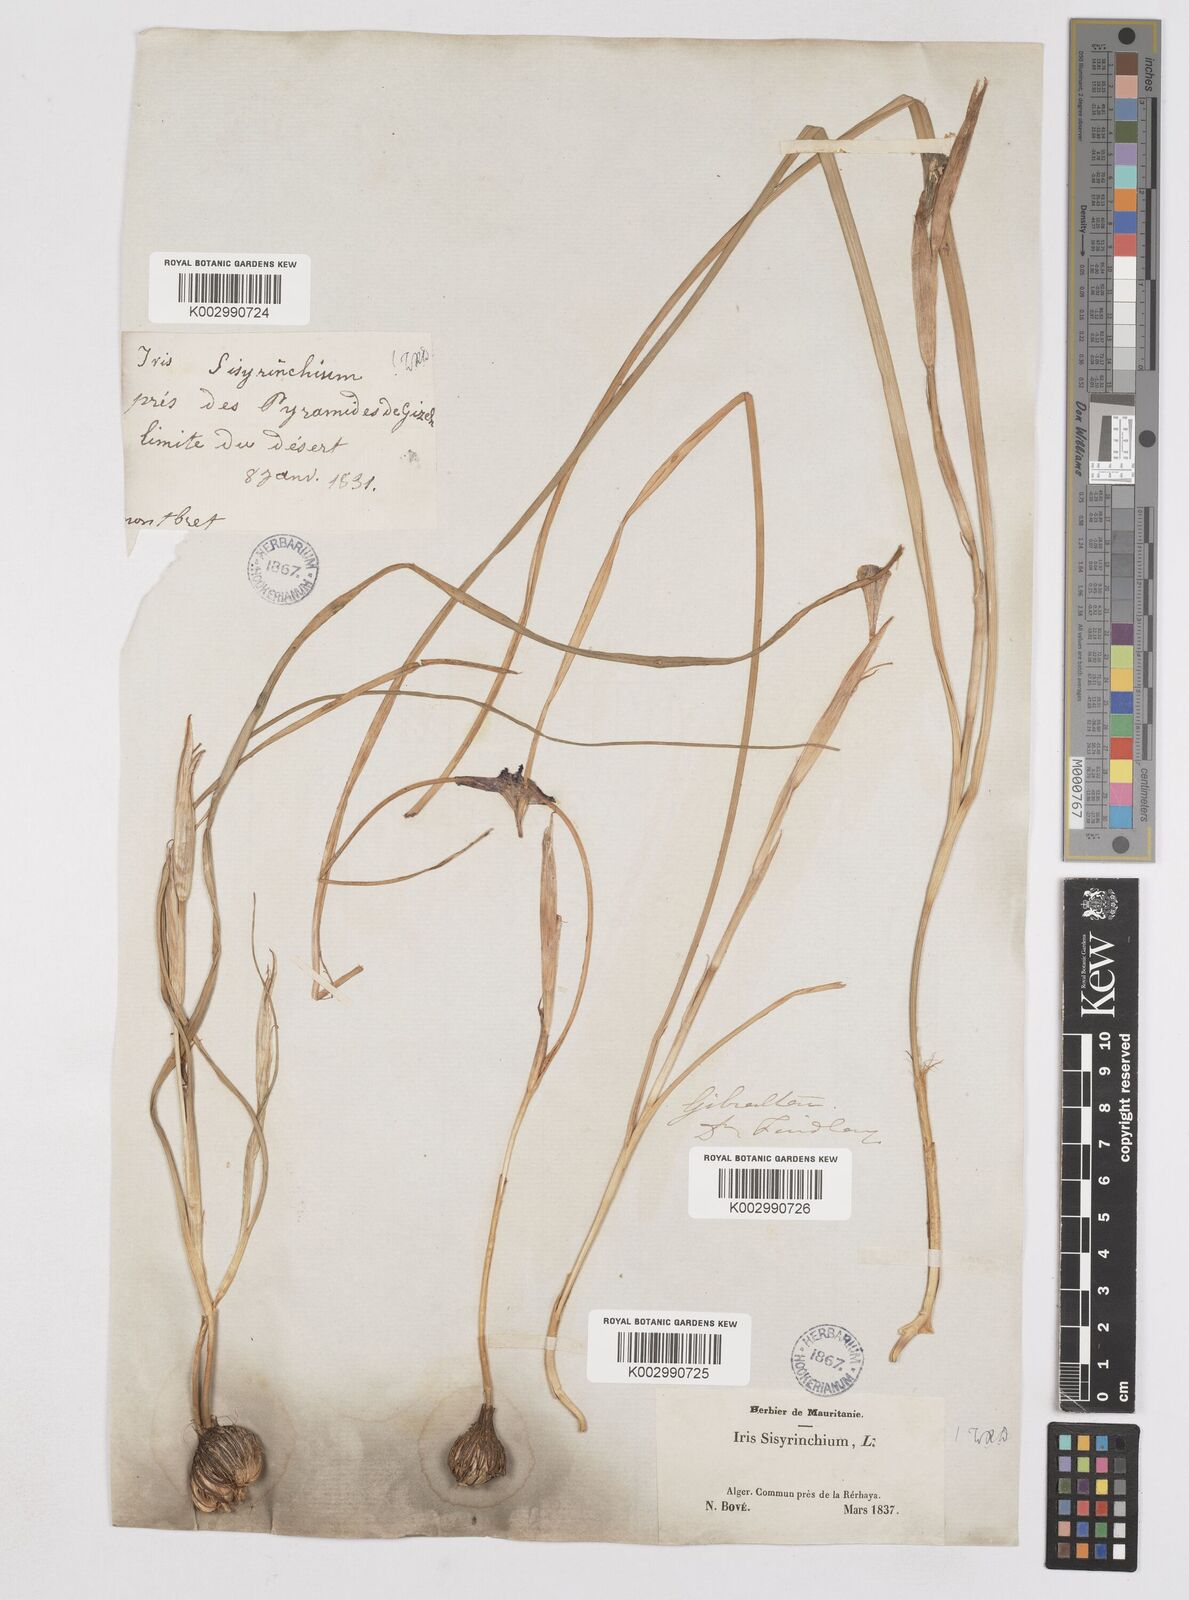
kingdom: Plantae
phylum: Tracheophyta
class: Liliopsida
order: Asparagales
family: Iridaceae
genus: Moraea
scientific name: Moraea sisyrinchium
